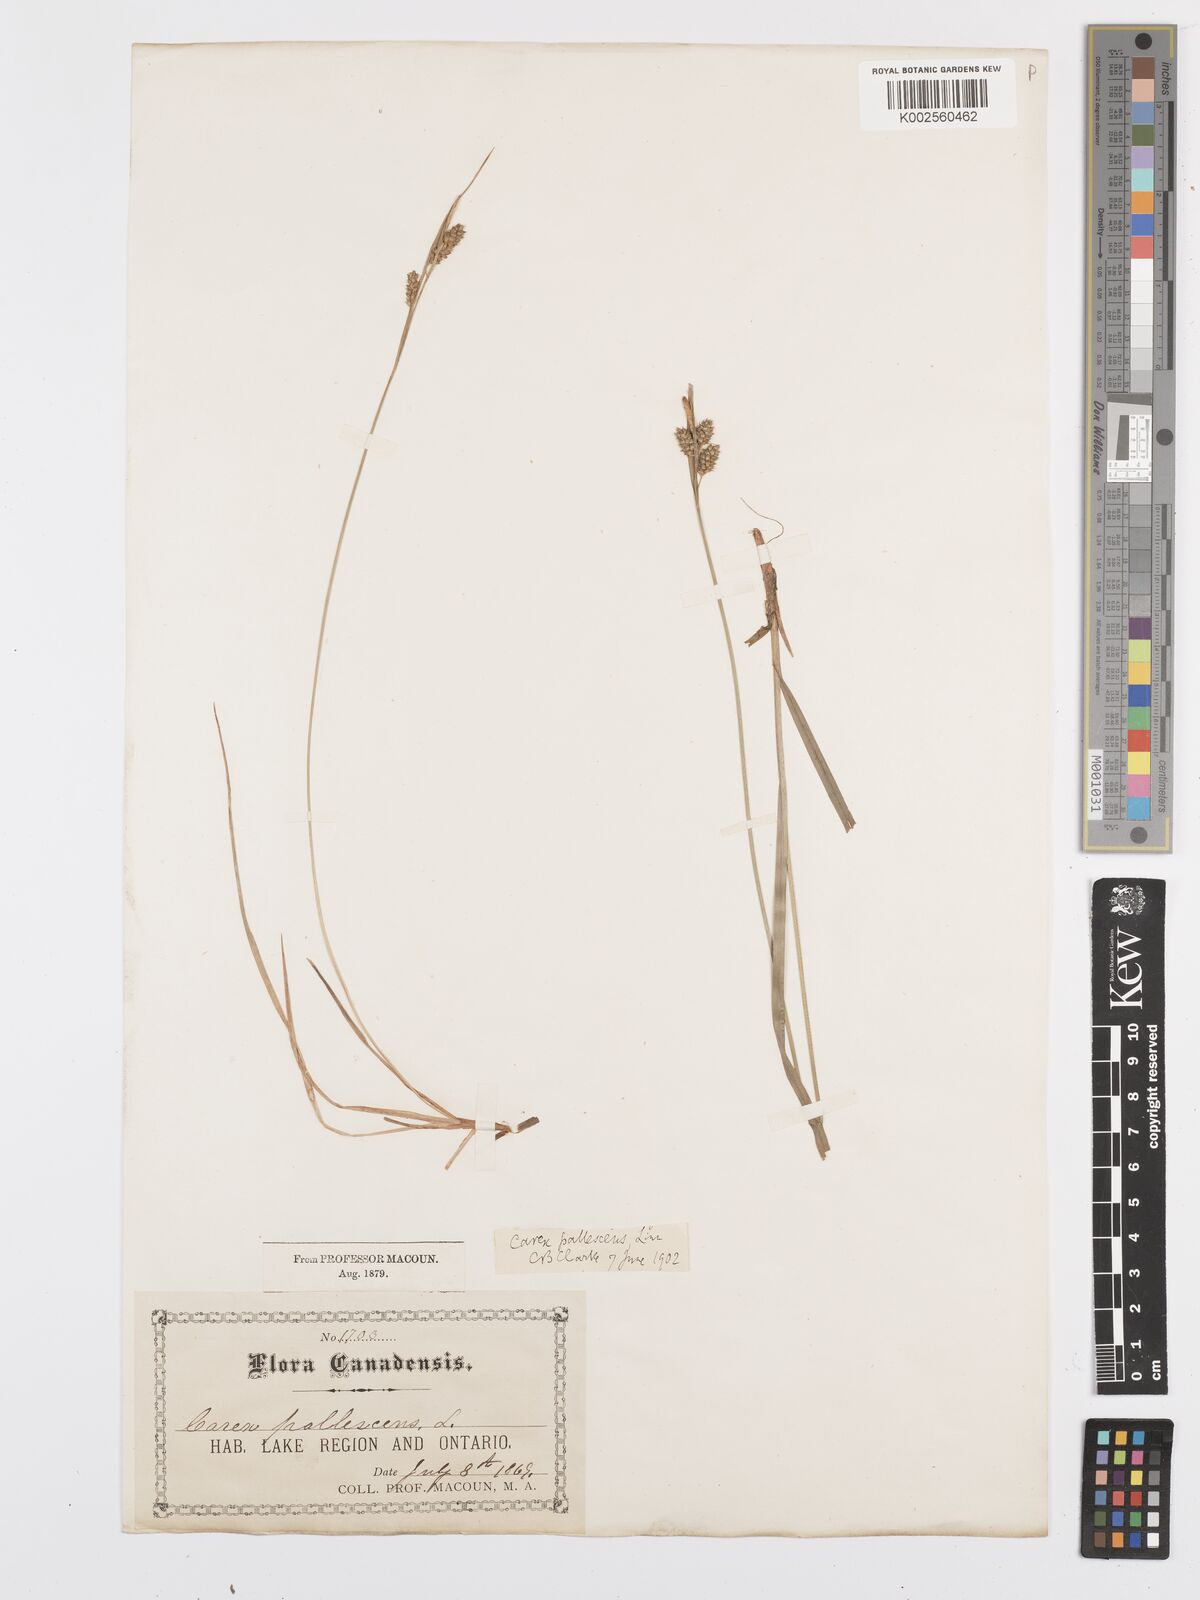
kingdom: Plantae
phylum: Tracheophyta
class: Liliopsida
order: Poales
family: Cyperaceae
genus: Carex
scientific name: Carex pallescens
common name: Pale sedge
